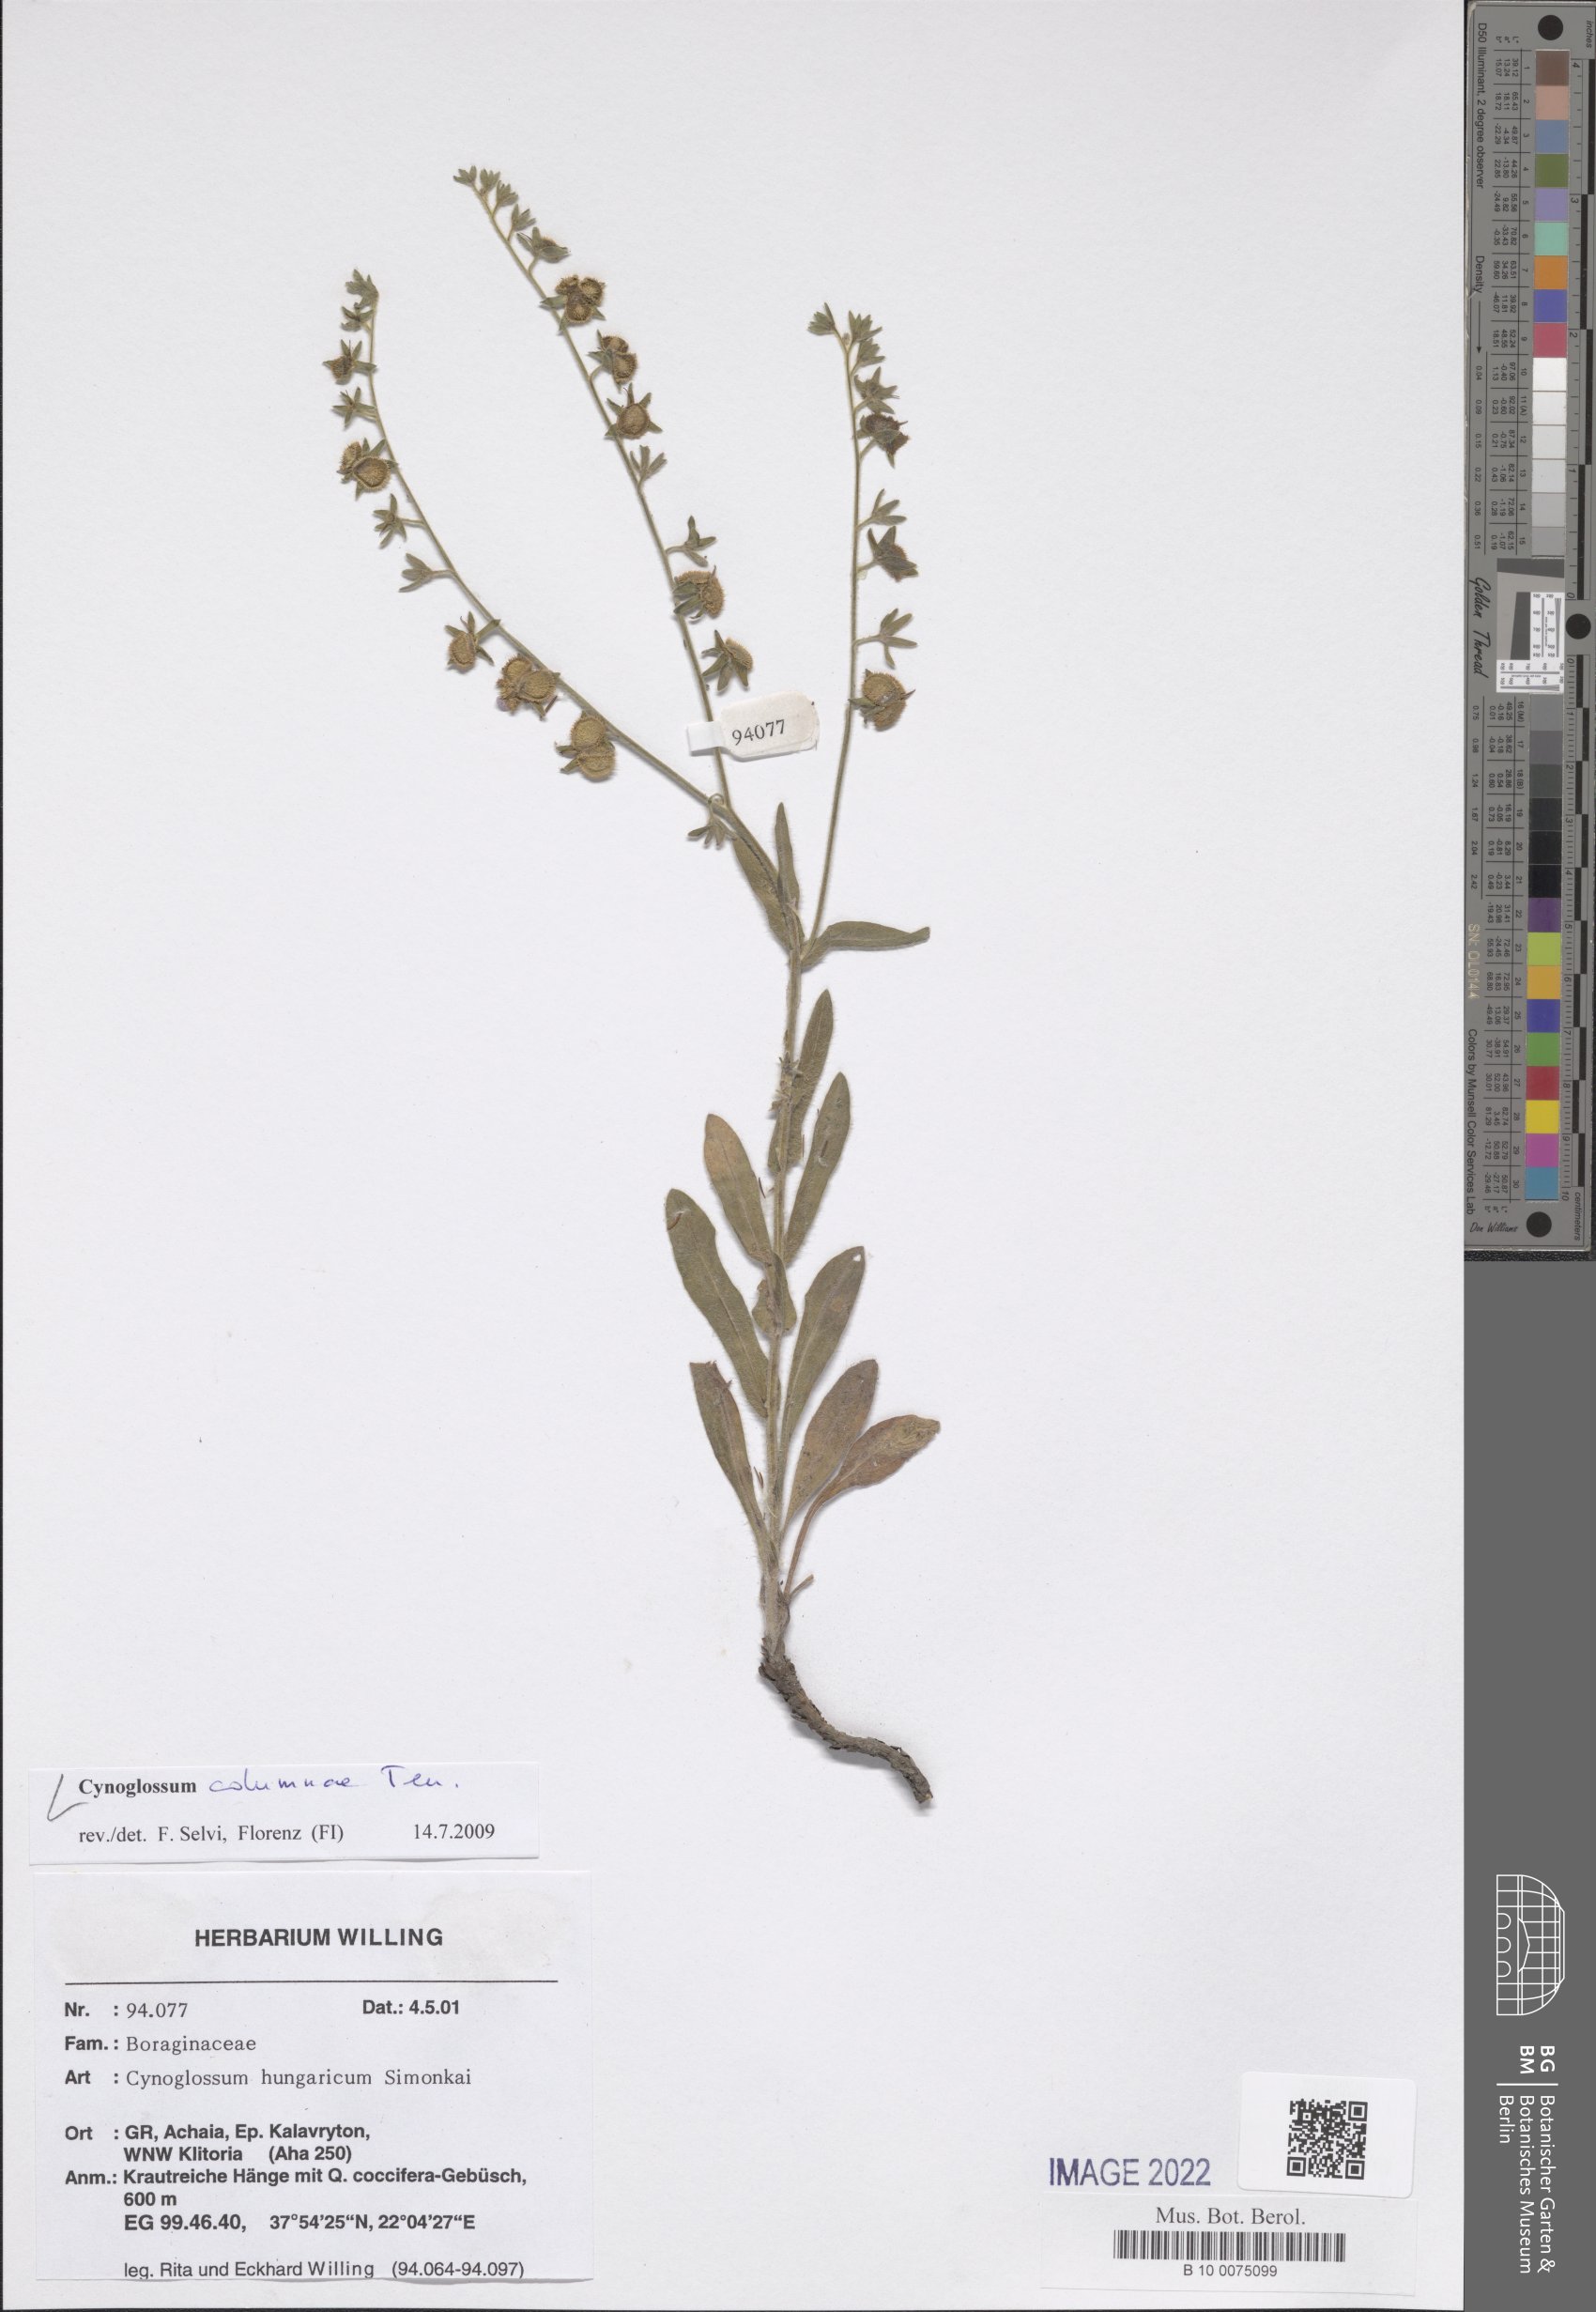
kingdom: Plantae
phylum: Tracheophyta
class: Magnoliopsida
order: Boraginales
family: Boraginaceae
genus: Rindera
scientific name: Rindera columnae
